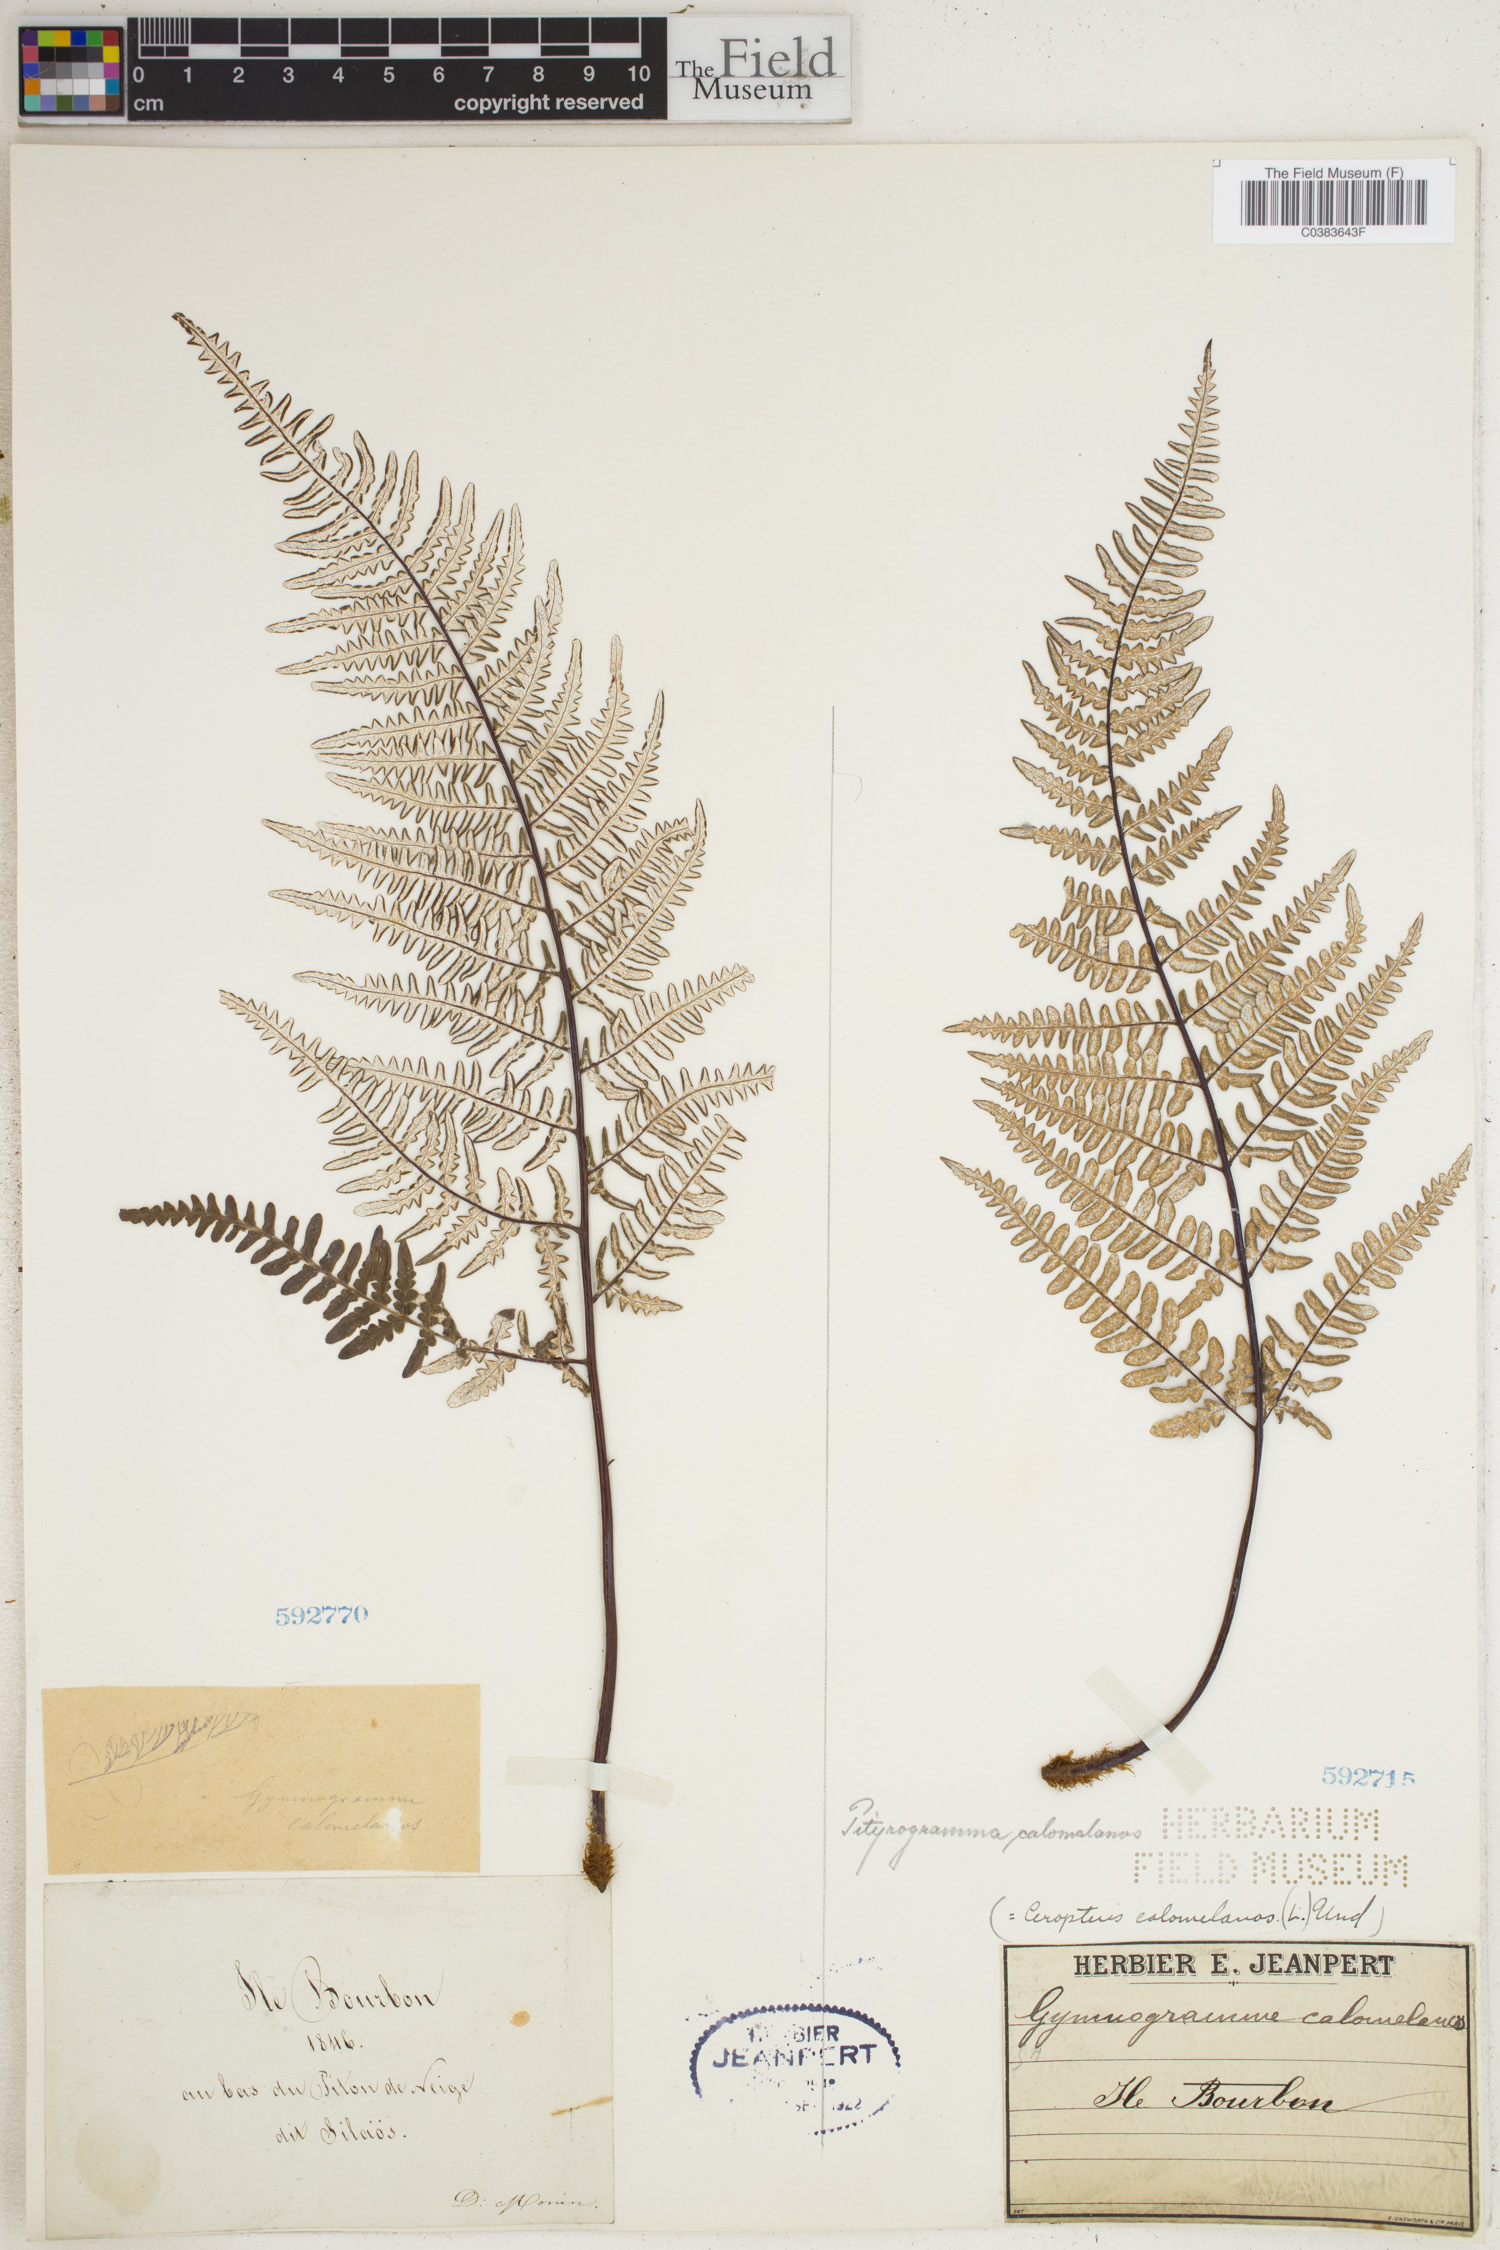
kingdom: Plantae
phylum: Tracheophyta
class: Polypodiopsida
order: Polypodiales
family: Pteridaceae
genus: Pityrogramma
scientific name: Pityrogramma calomelanos
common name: Dixie silverback fern
